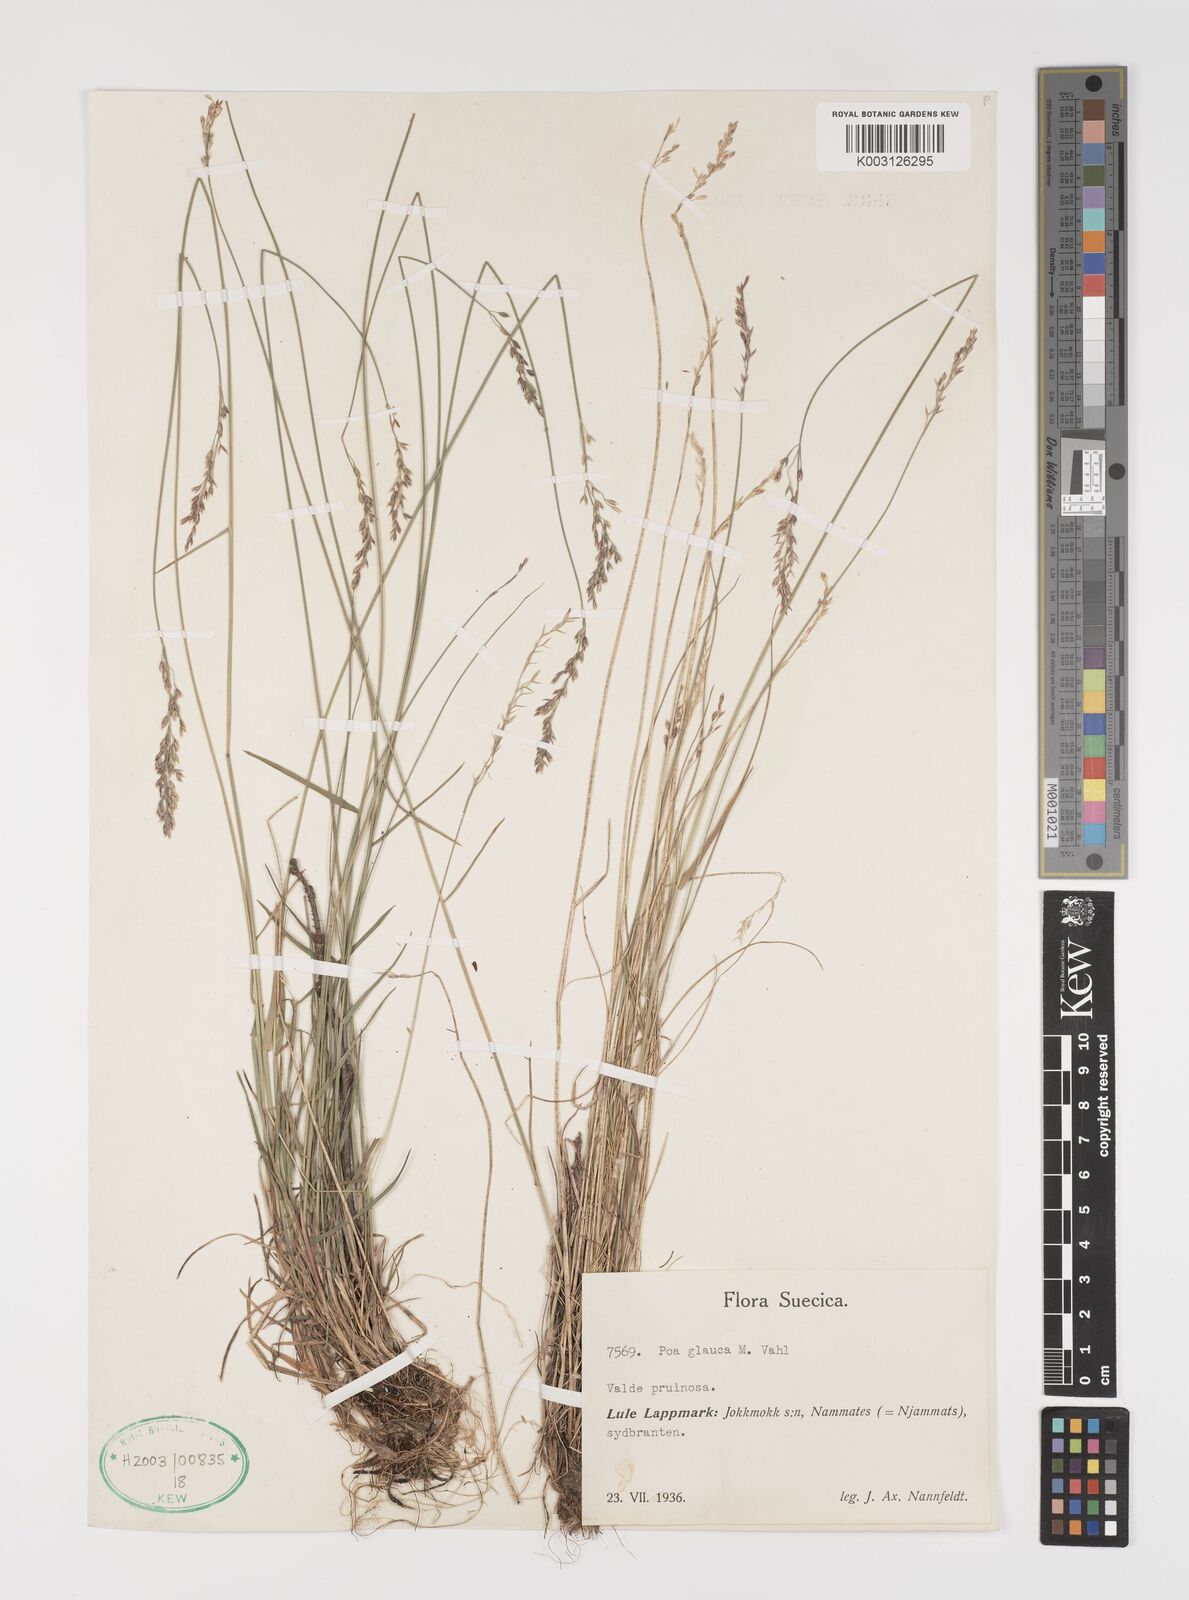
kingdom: Plantae
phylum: Tracheophyta
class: Liliopsida
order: Poales
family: Poaceae
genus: Poa
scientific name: Poa glauca
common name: Glaucous bluegrass
